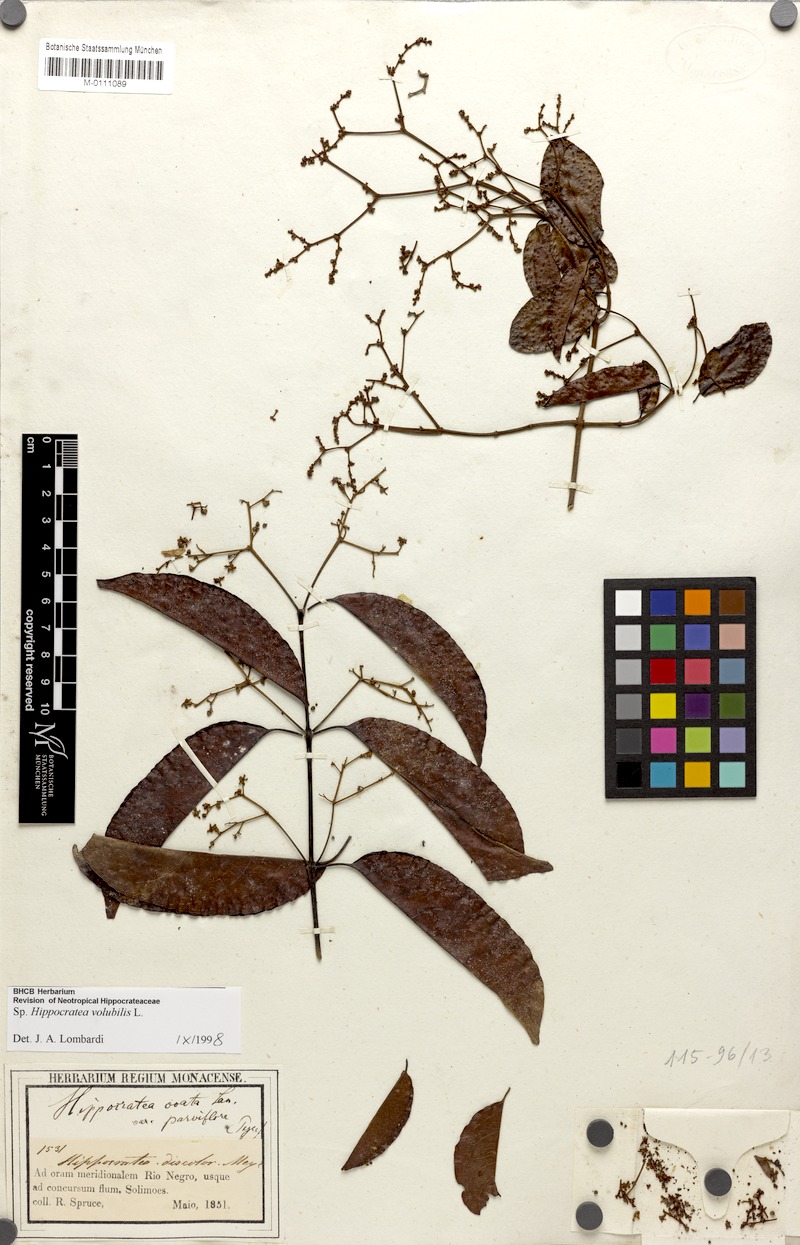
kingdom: Plantae
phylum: Tracheophyta
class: Magnoliopsida
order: Celastrales
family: Celastraceae
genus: Hippocratea
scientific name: Hippocratea volubilis
